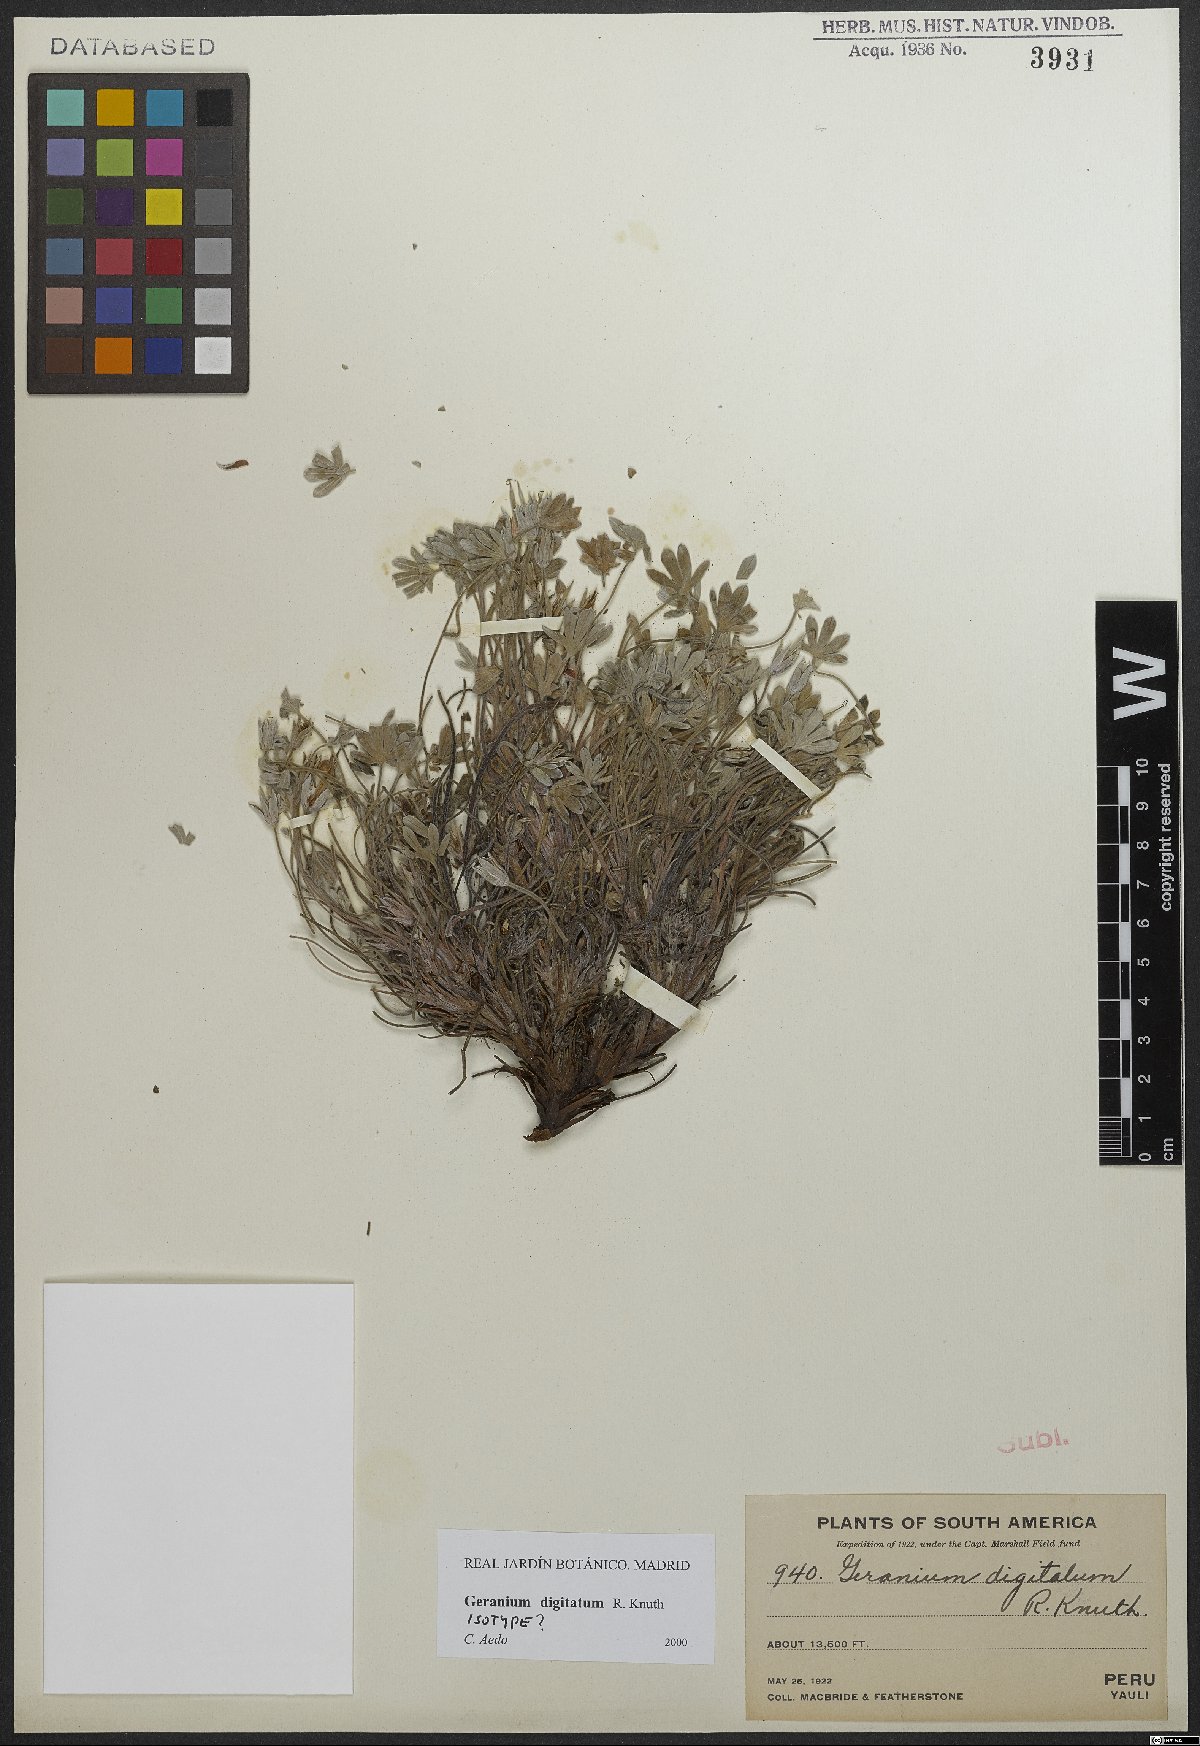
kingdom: Plantae
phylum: Tracheophyta
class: Magnoliopsida
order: Geraniales
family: Geraniaceae
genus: Geranium
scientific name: Geranium digitatum
